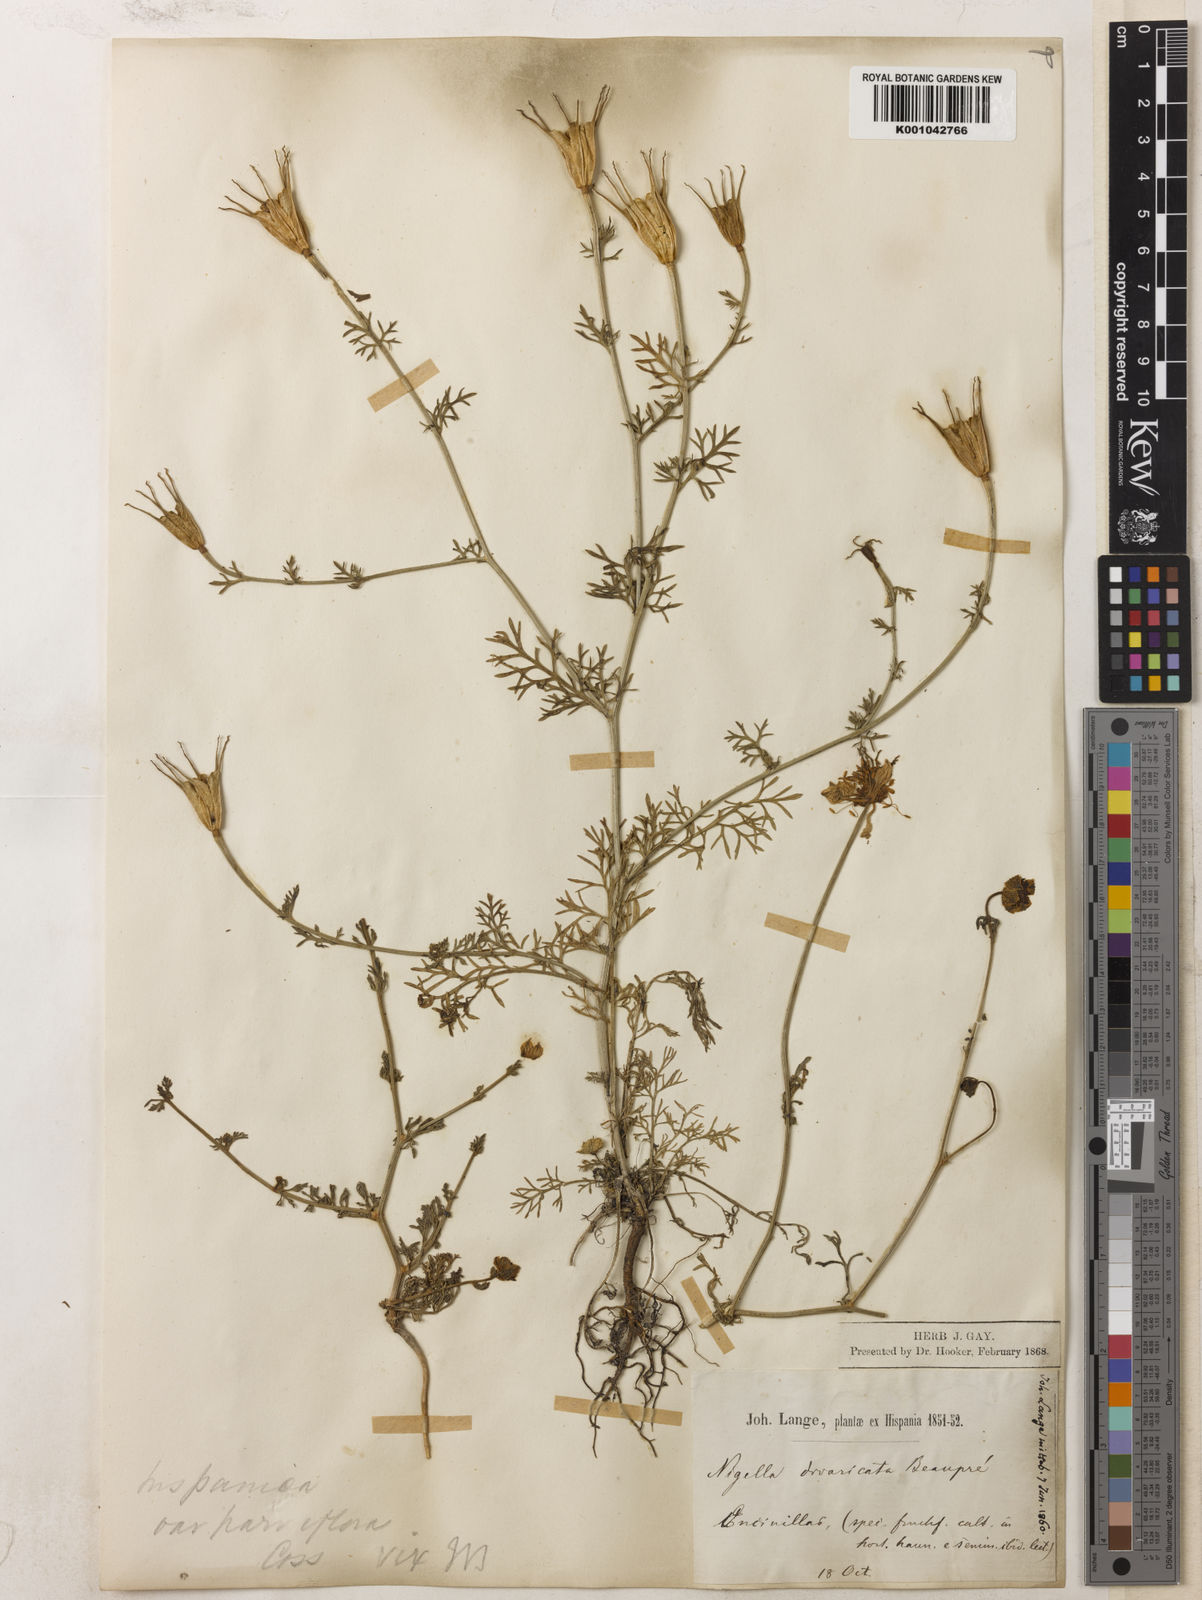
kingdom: Plantae
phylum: Tracheophyta
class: Magnoliopsida
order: Ranunculales
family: Ranunculaceae
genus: Nigella
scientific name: Nigella hispanica
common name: Fennel-flower
